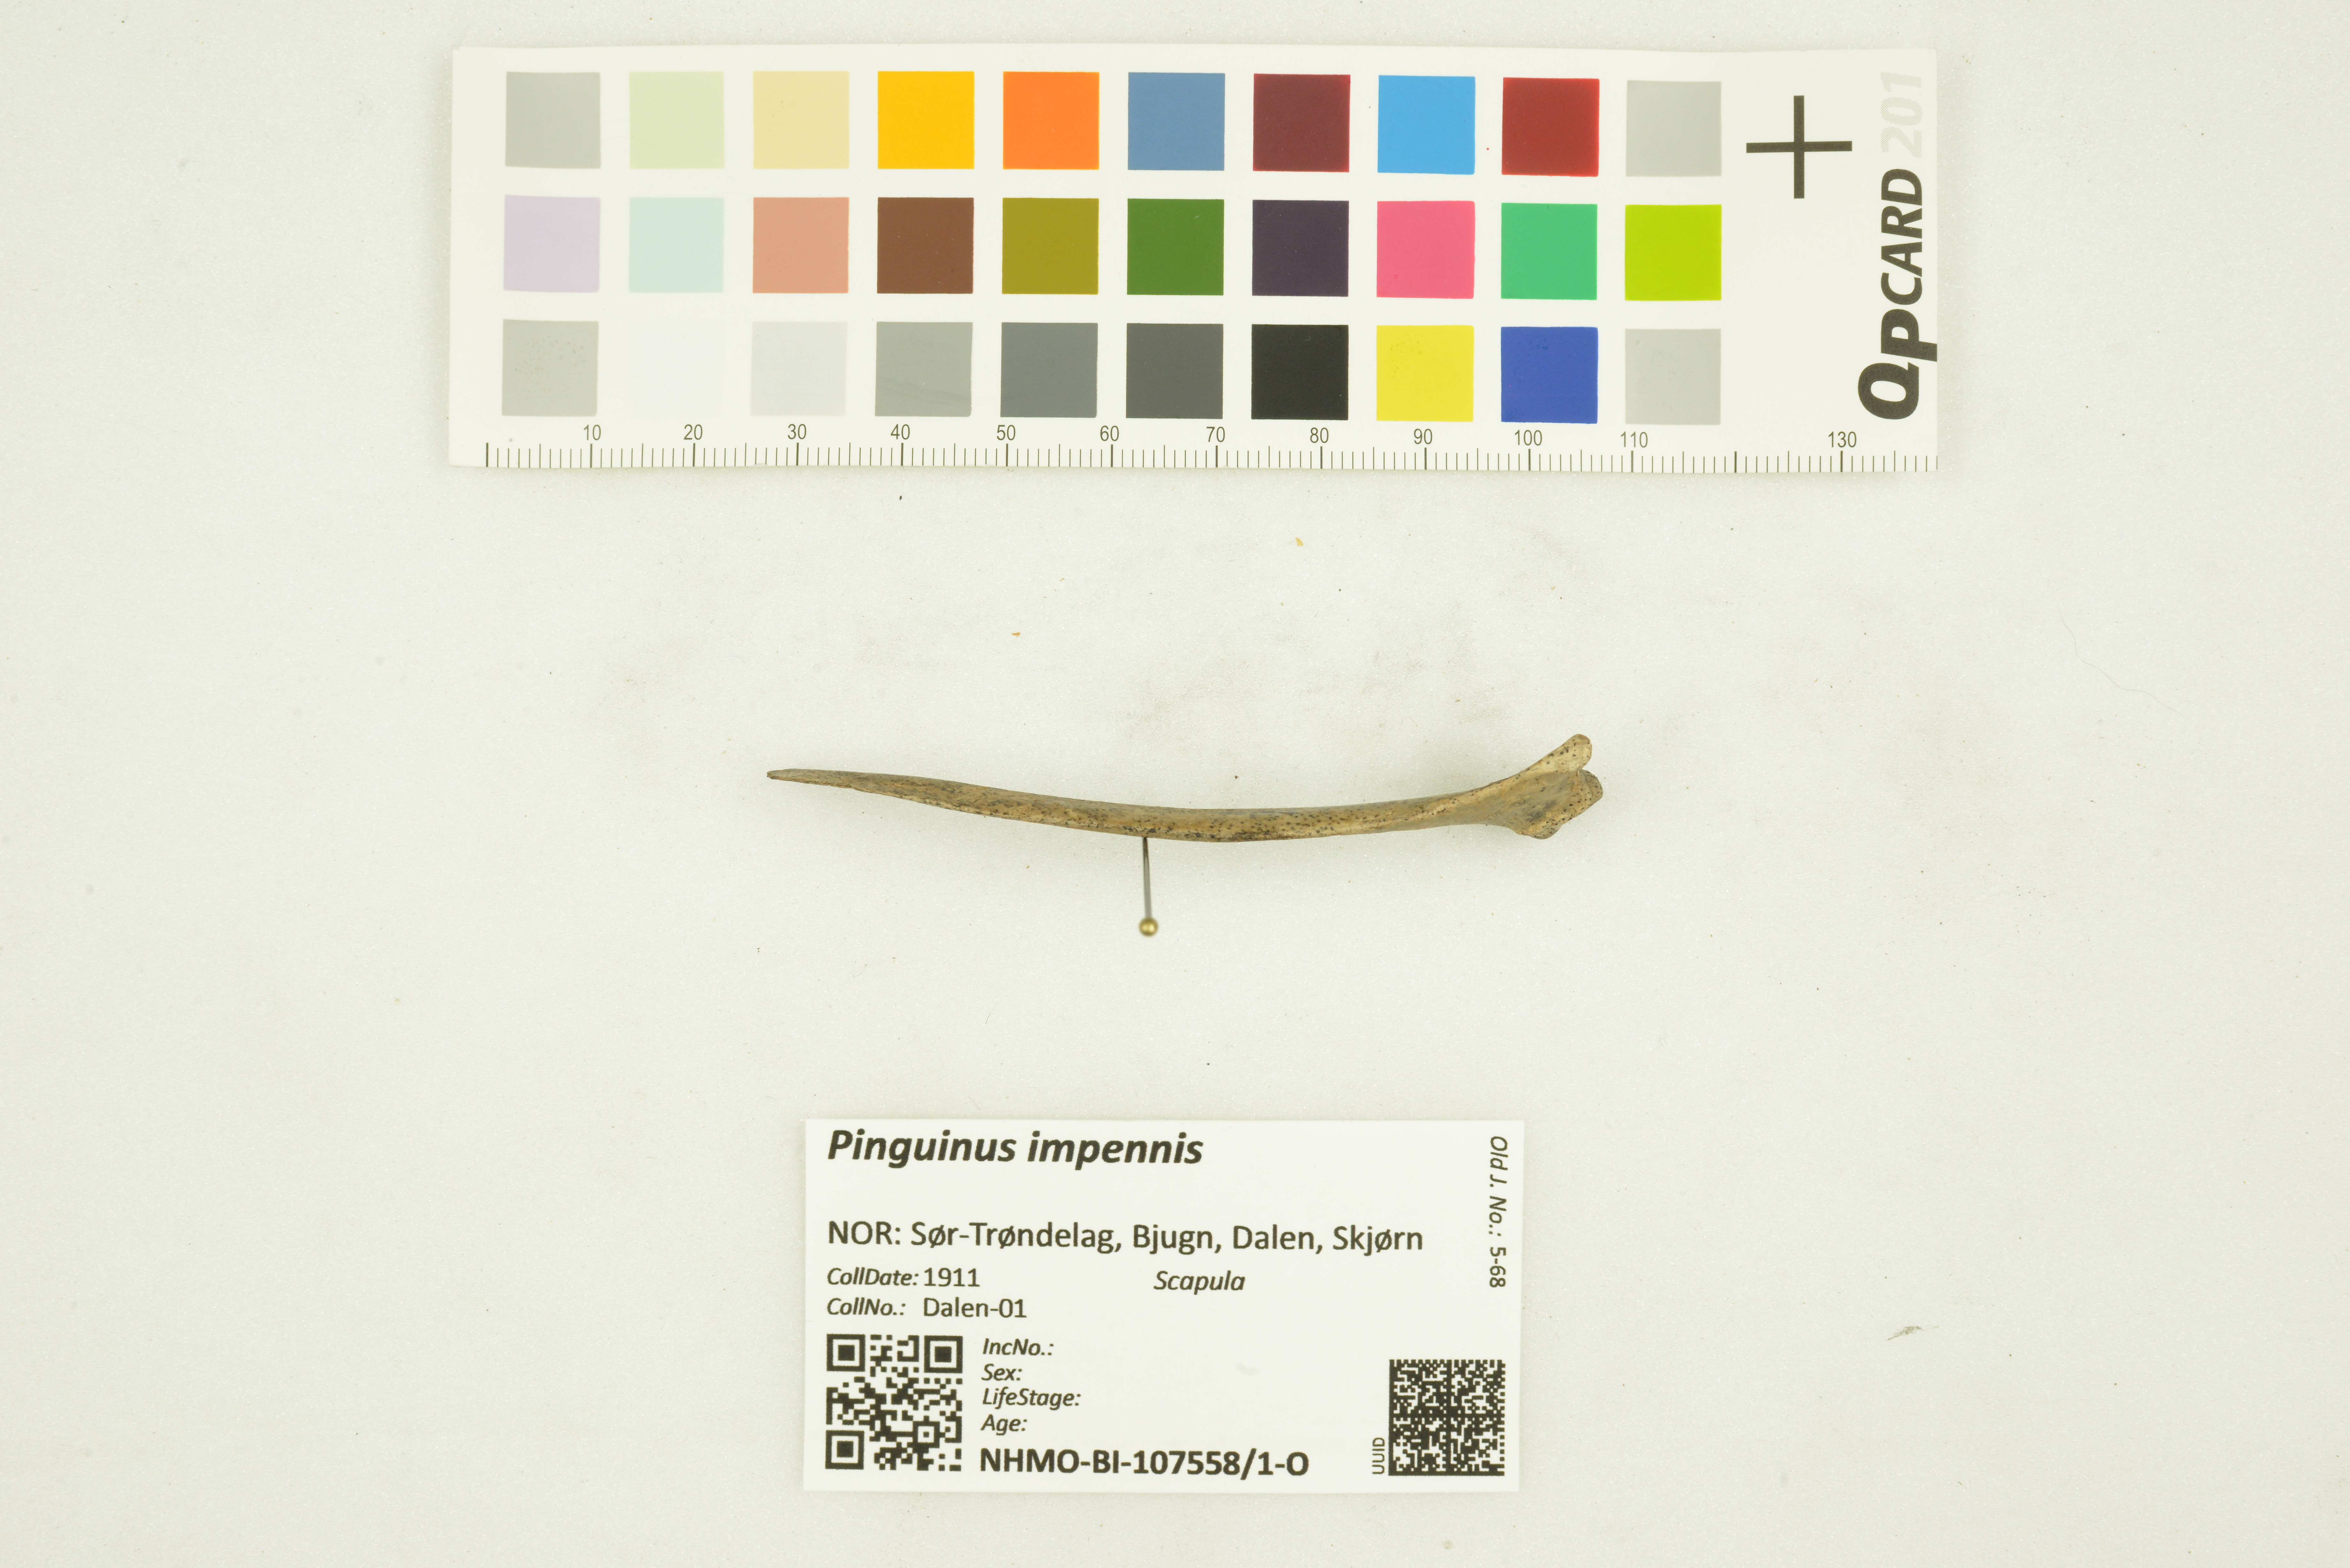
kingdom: Animalia
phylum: Chordata
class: Aves
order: Charadriiformes
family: Alcidae
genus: Pinguinus
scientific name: Pinguinus impennis
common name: Great auk
